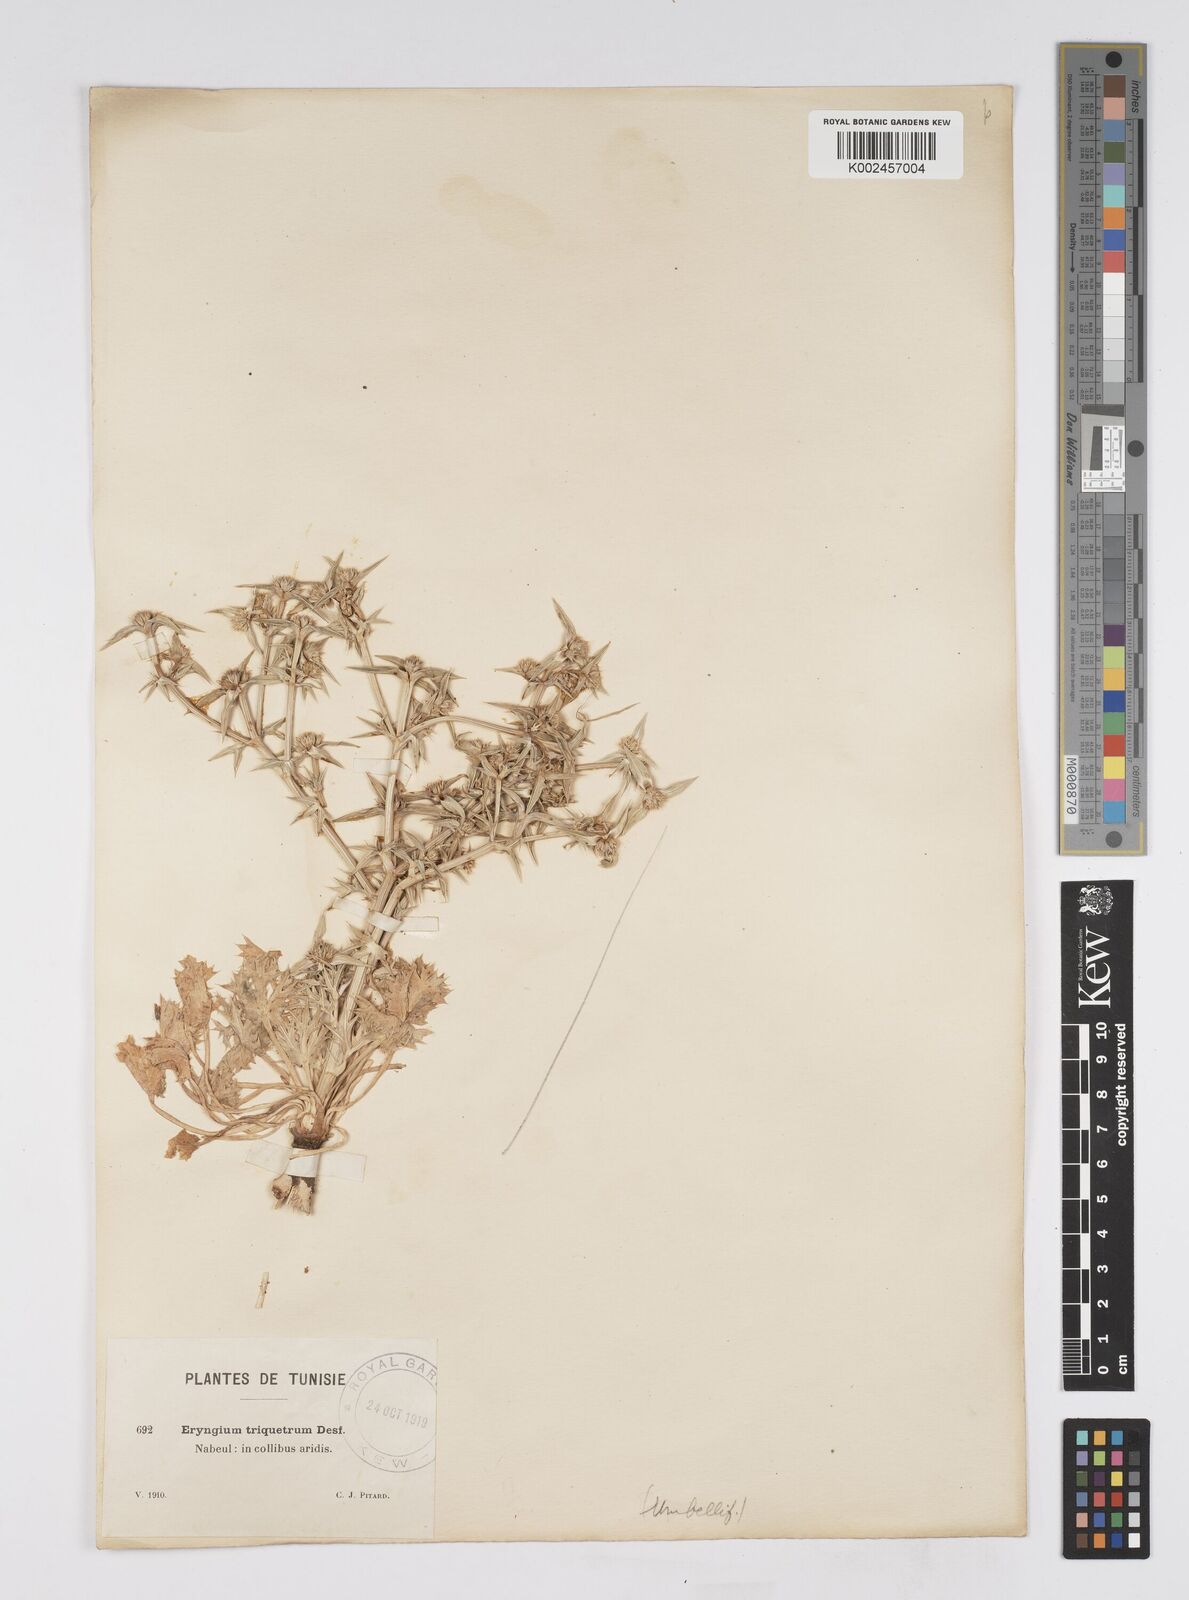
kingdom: Plantae
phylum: Tracheophyta
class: Magnoliopsida
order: Apiales
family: Apiaceae
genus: Eryngium
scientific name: Eryngium triquetrum
